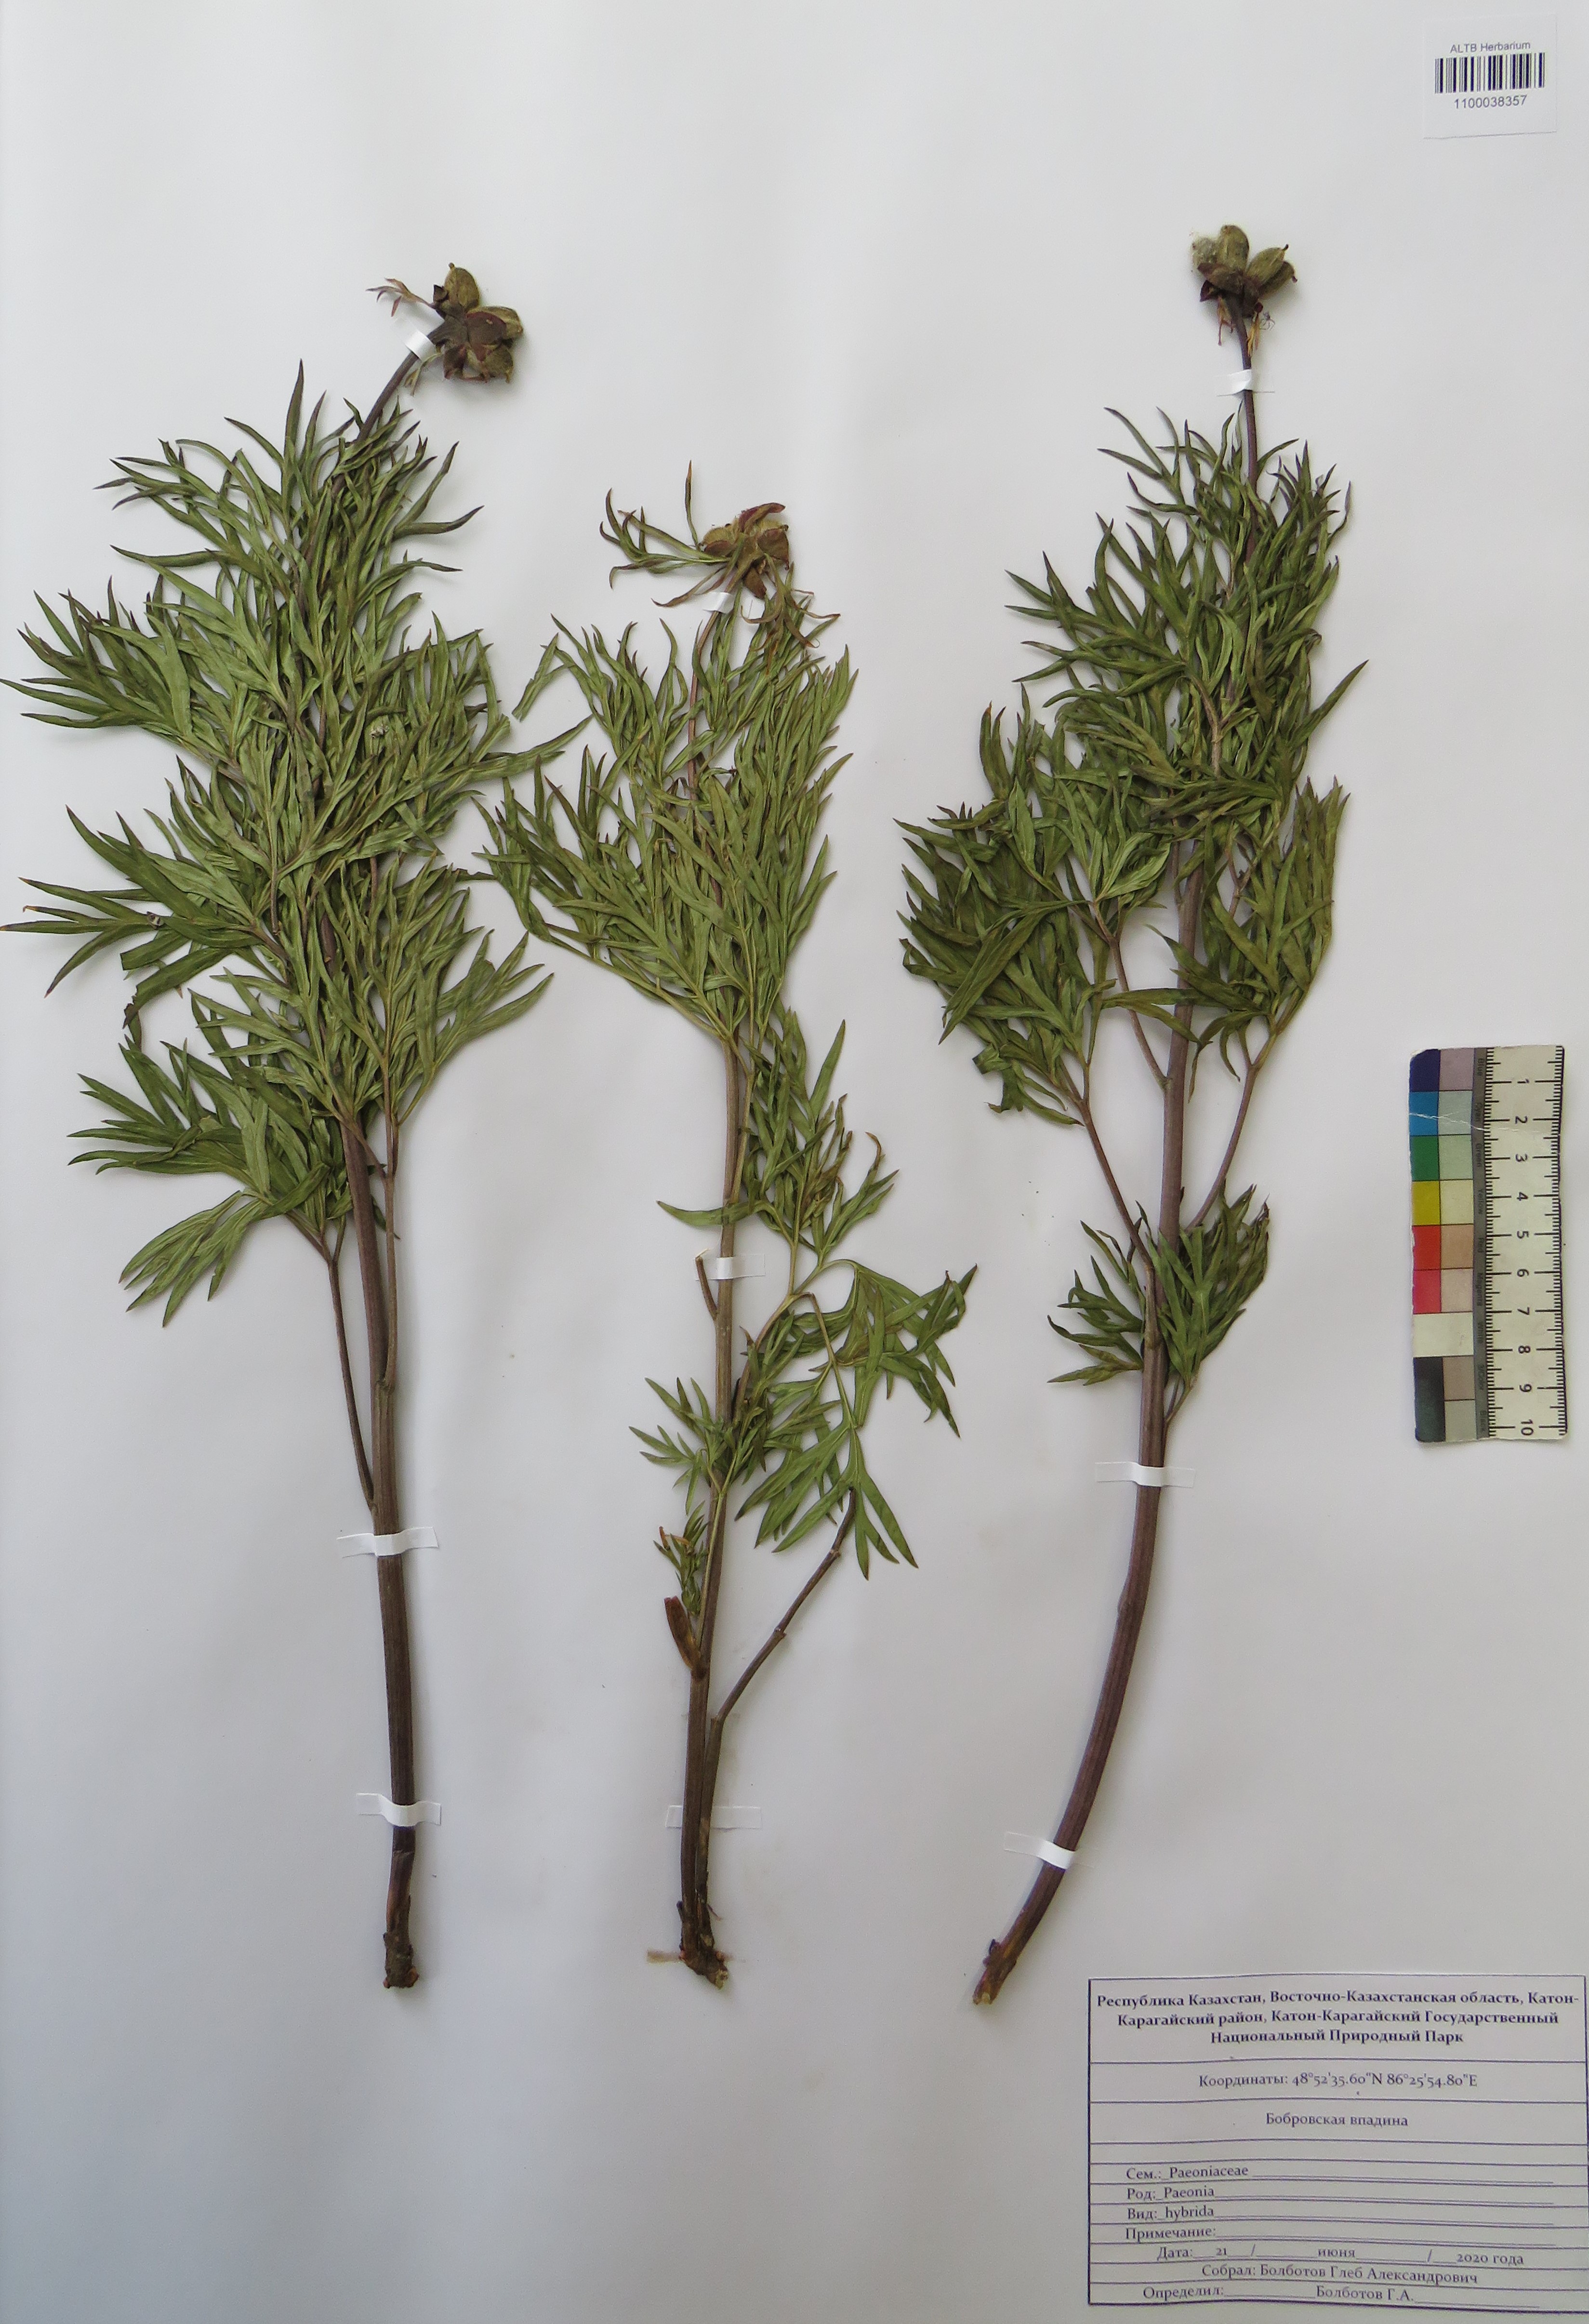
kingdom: Plantae
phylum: Tracheophyta
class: Magnoliopsida
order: Saxifragales
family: Paeoniaceae
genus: Paeonia
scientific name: Paeonia
